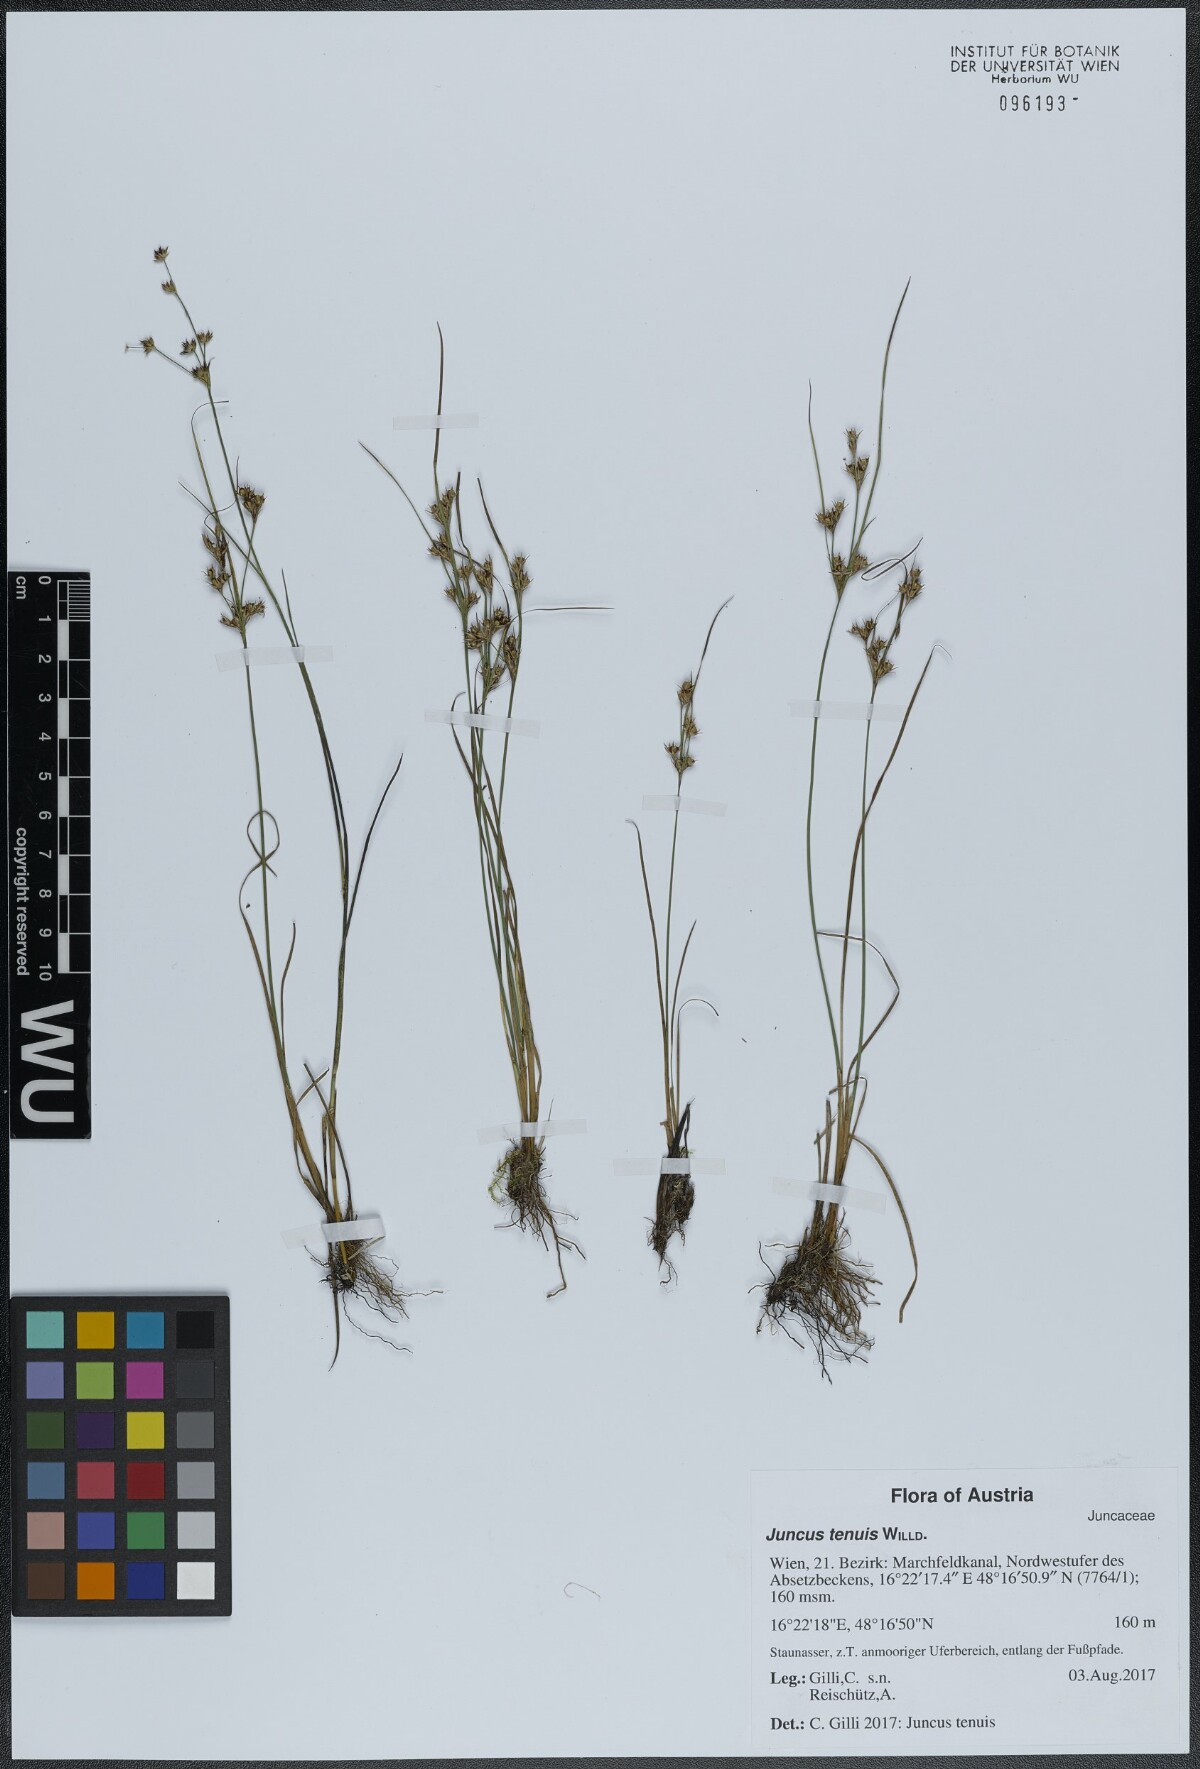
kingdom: Plantae
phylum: Tracheophyta
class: Liliopsida
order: Poales
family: Juncaceae
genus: Juncus
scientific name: Juncus tenuis
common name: Slender rush
